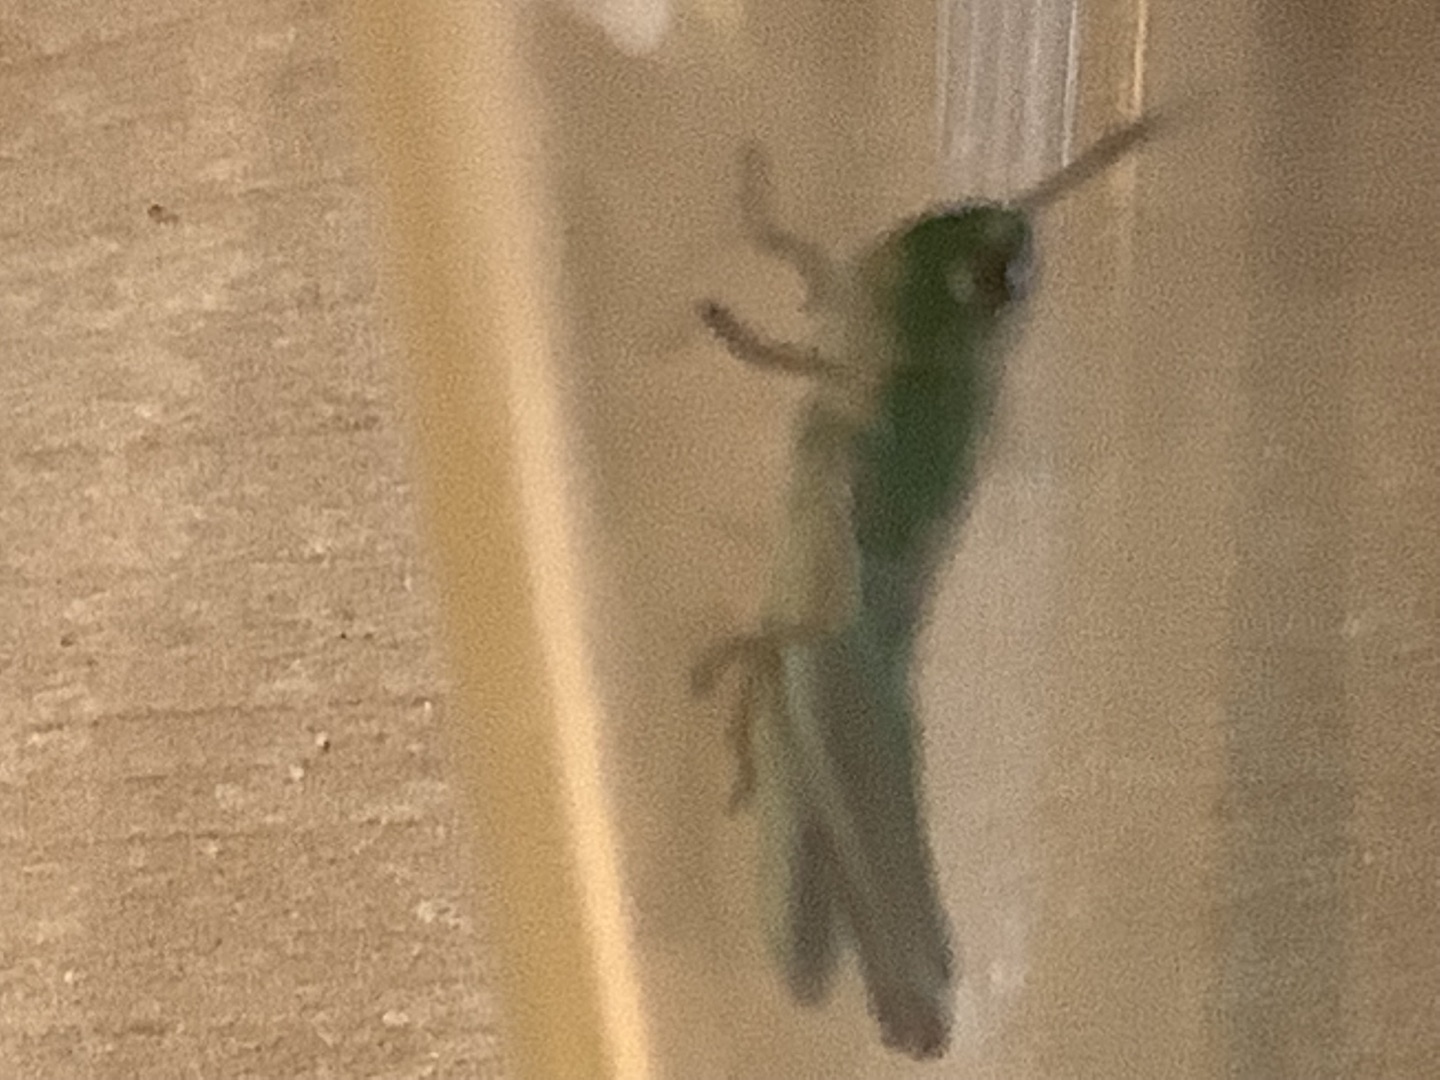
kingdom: Animalia
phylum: Arthropoda
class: Insecta
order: Orthoptera
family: Acrididae
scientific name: Acrididae
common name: Markgræshopper
